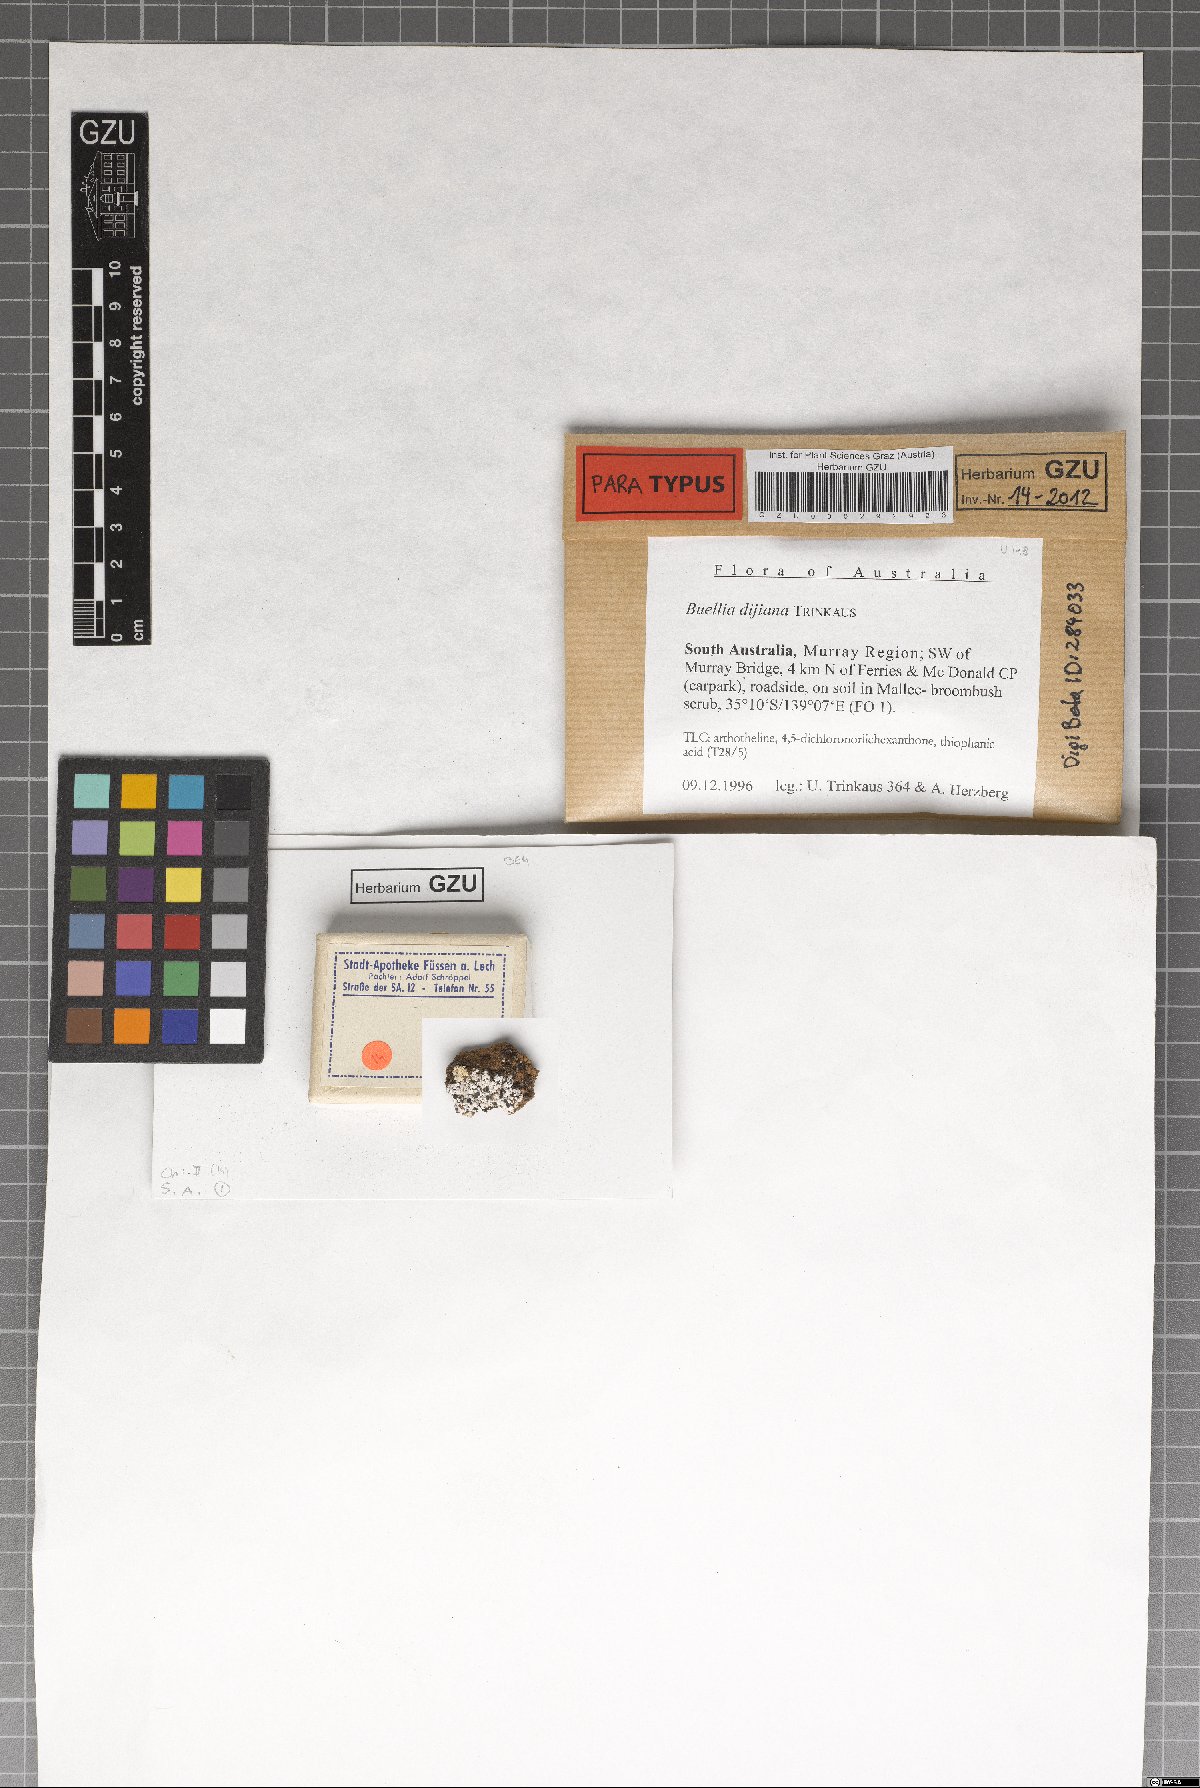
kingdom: Fungi
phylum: Ascomycota
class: Lecanoromycetes
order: Caliciales
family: Caliciaceae
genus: Buellia
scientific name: Buellia dayboroana
